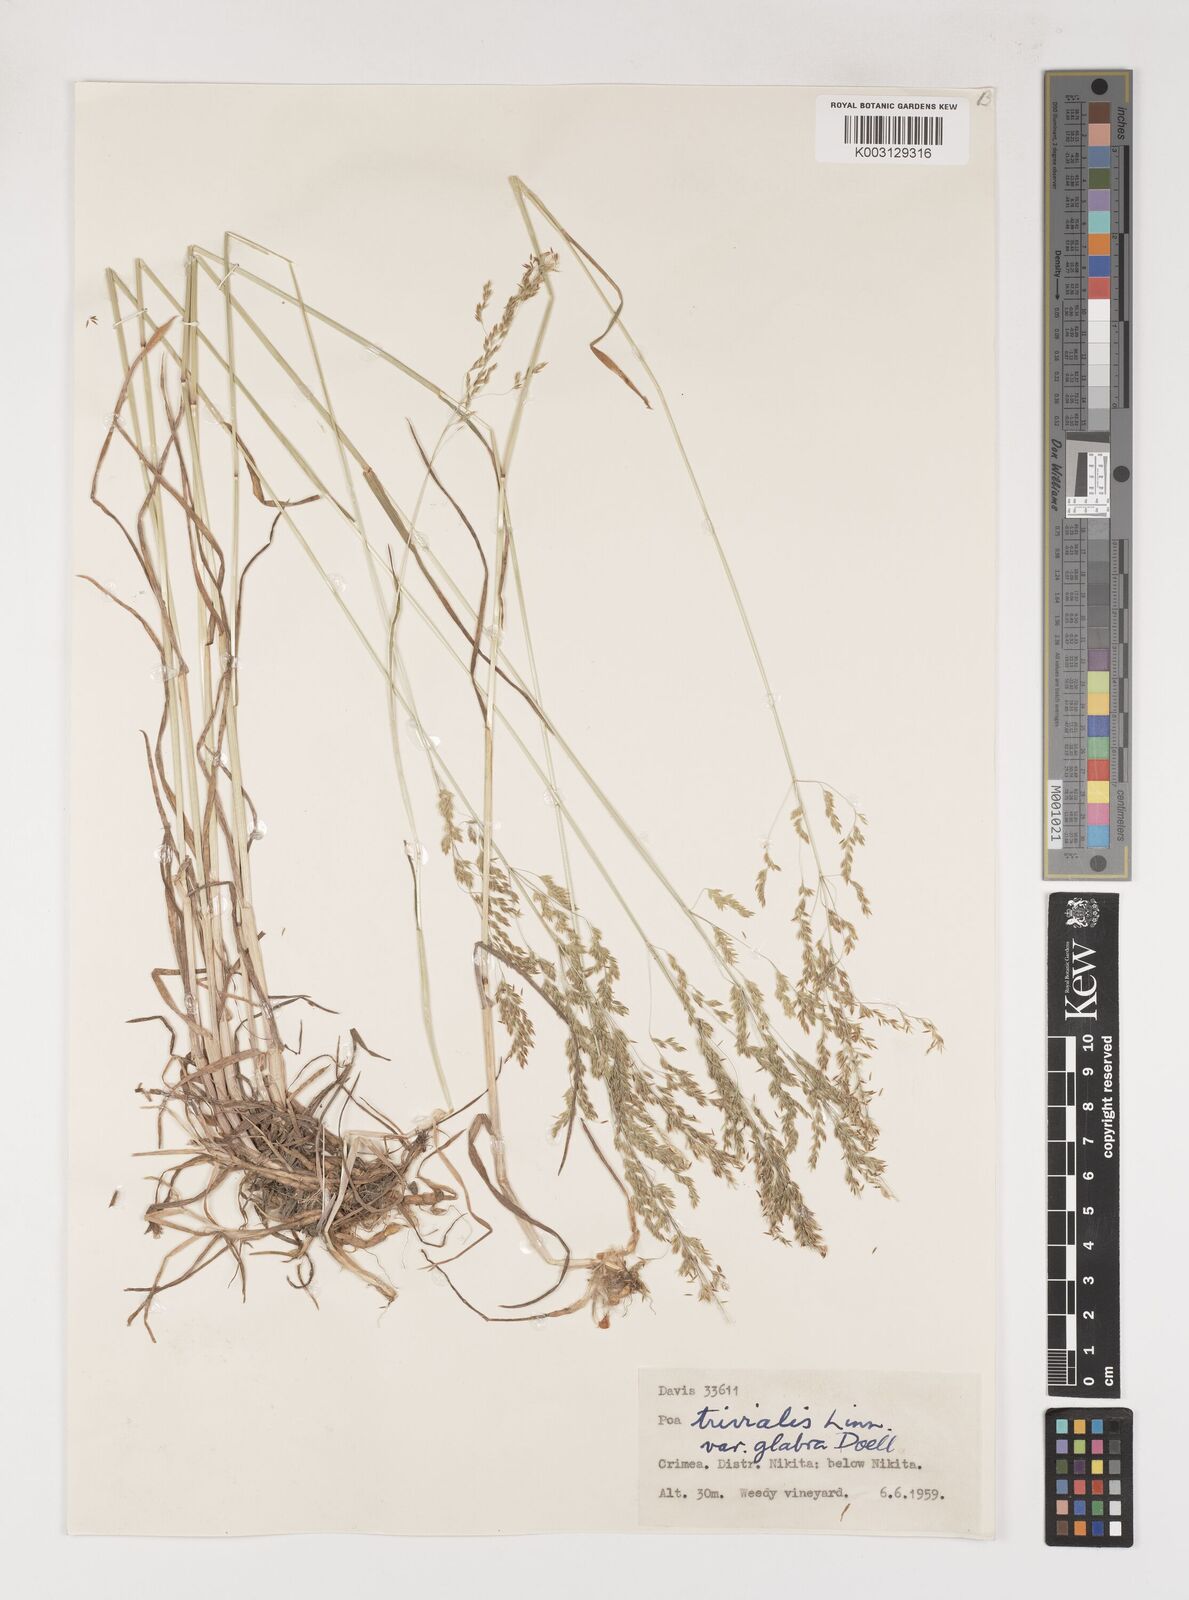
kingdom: Plantae
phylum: Tracheophyta
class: Liliopsida
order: Poales
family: Poaceae
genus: Poa
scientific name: Poa trivialis
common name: Rough bluegrass
